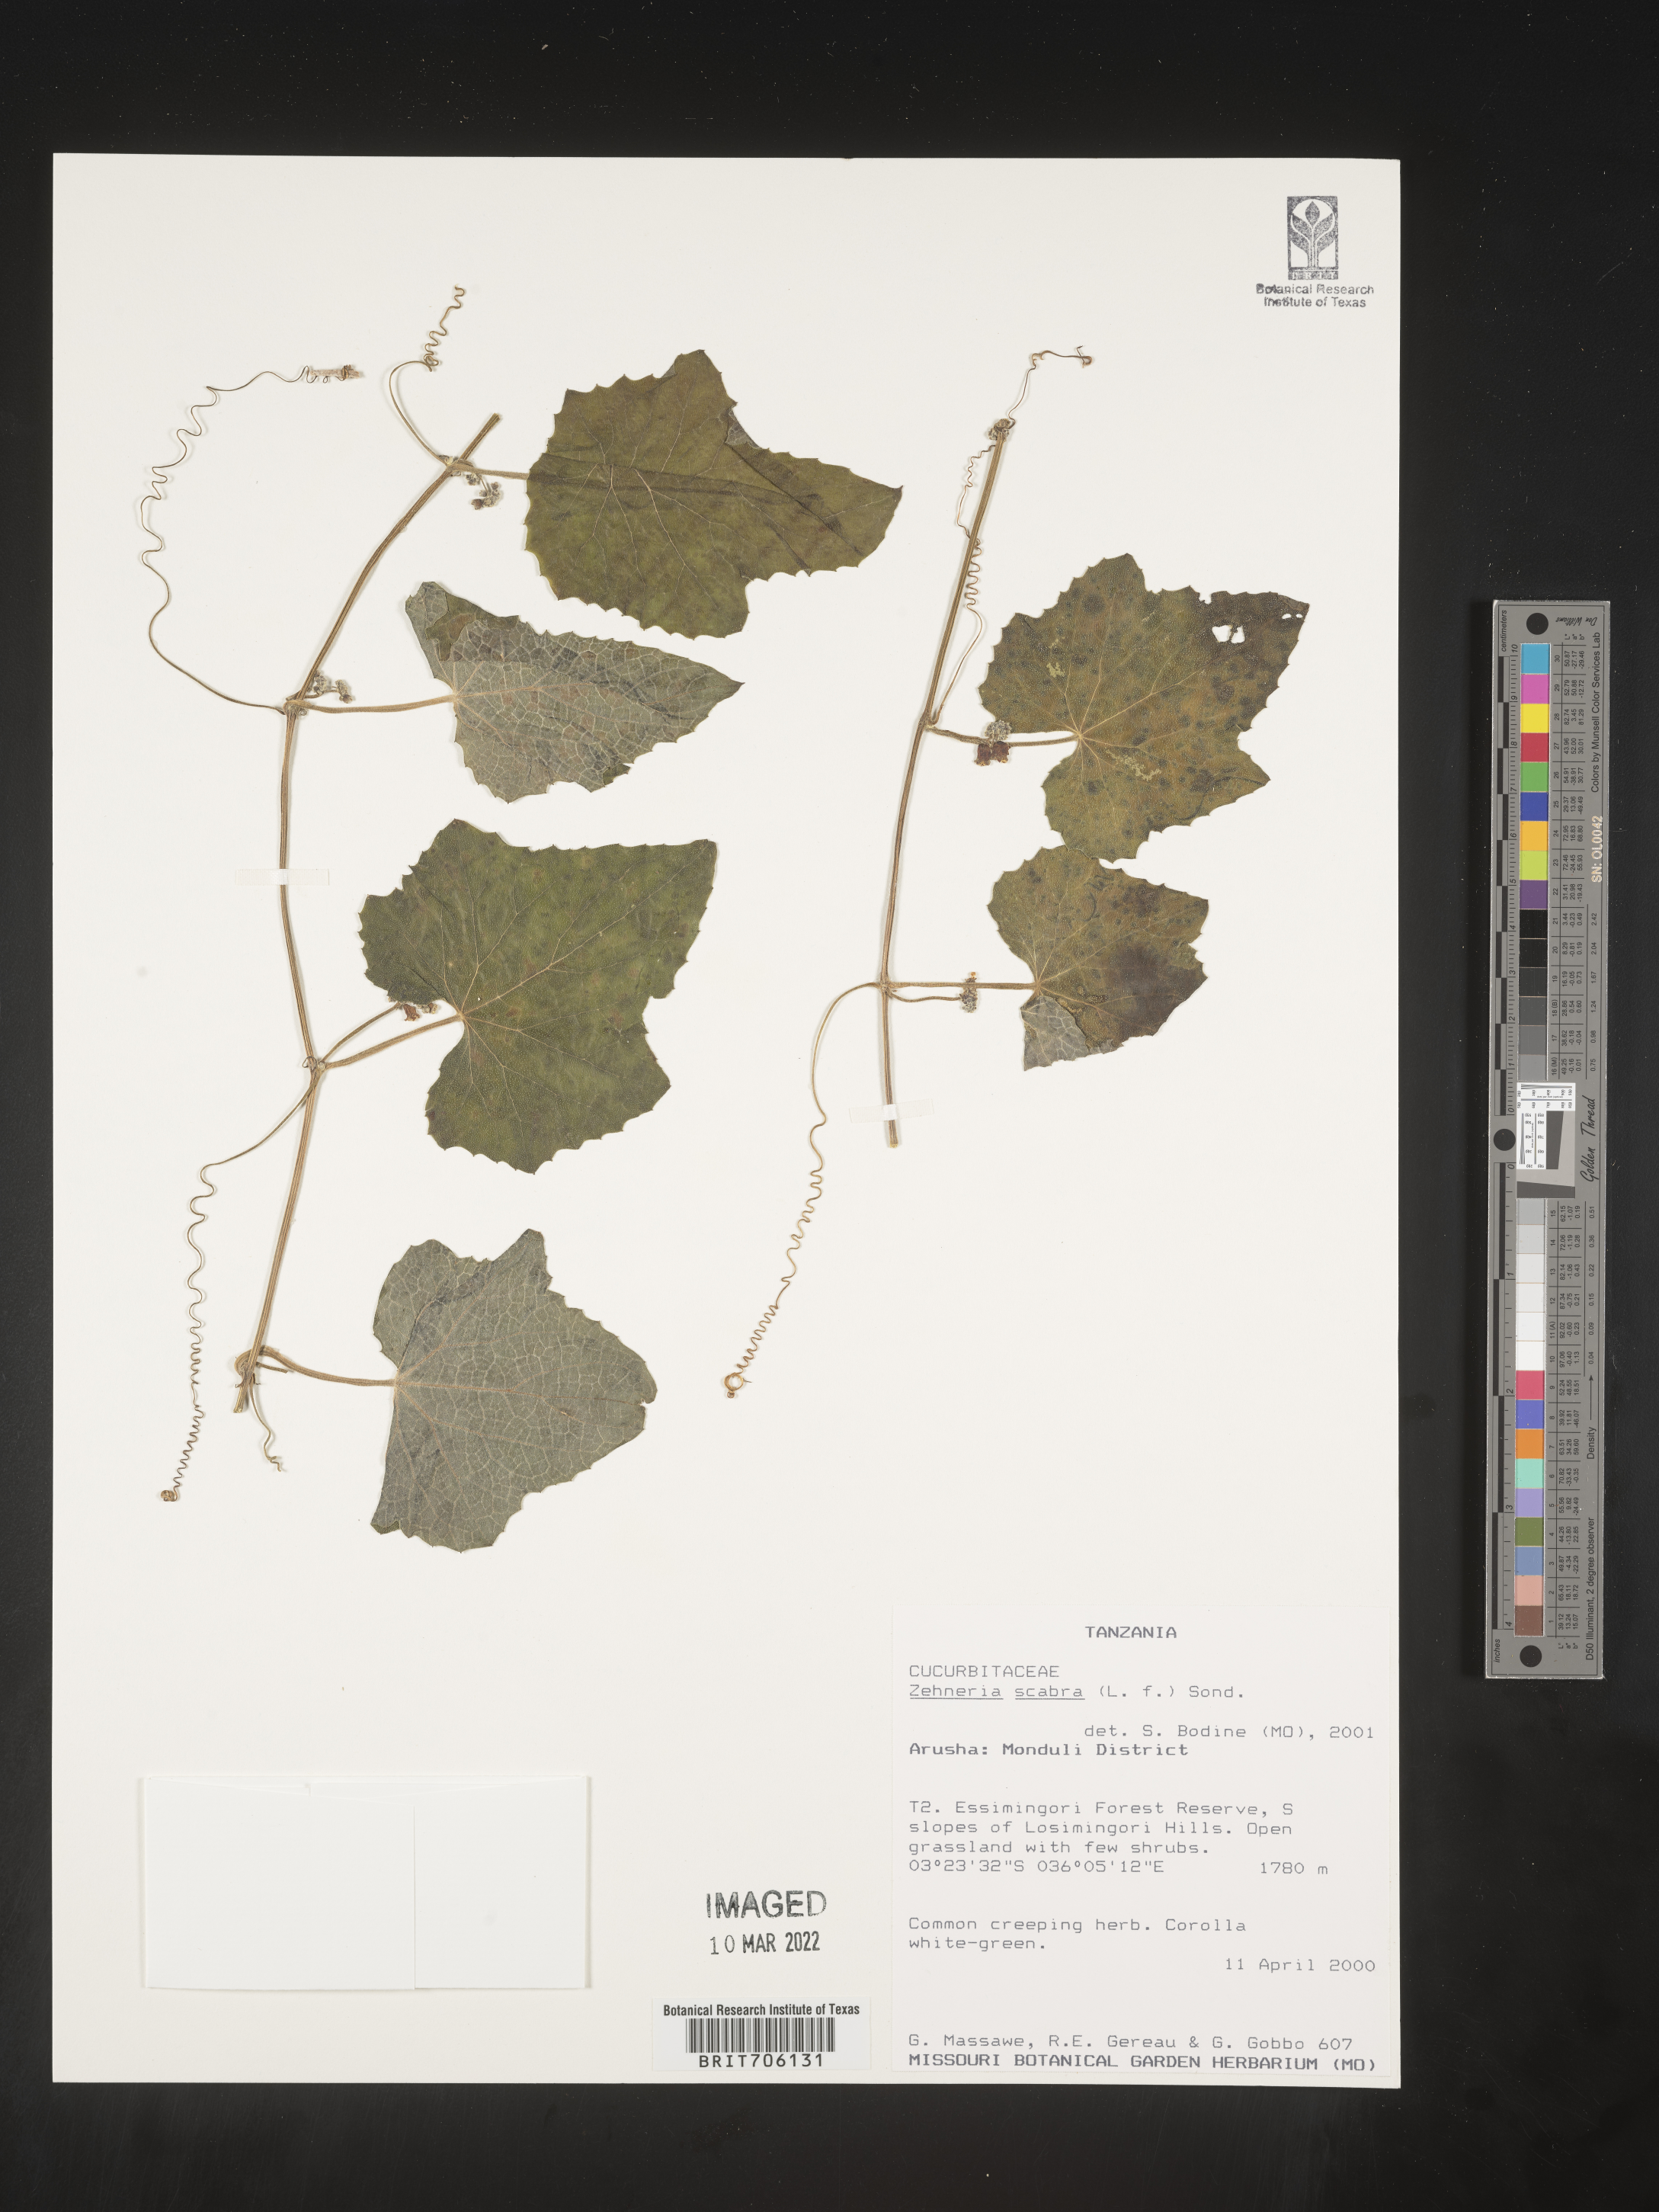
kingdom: Plantae
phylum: Tracheophyta
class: Magnoliopsida
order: Cucurbitales
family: Cucurbitaceae
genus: Zehneria
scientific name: Zehneria
